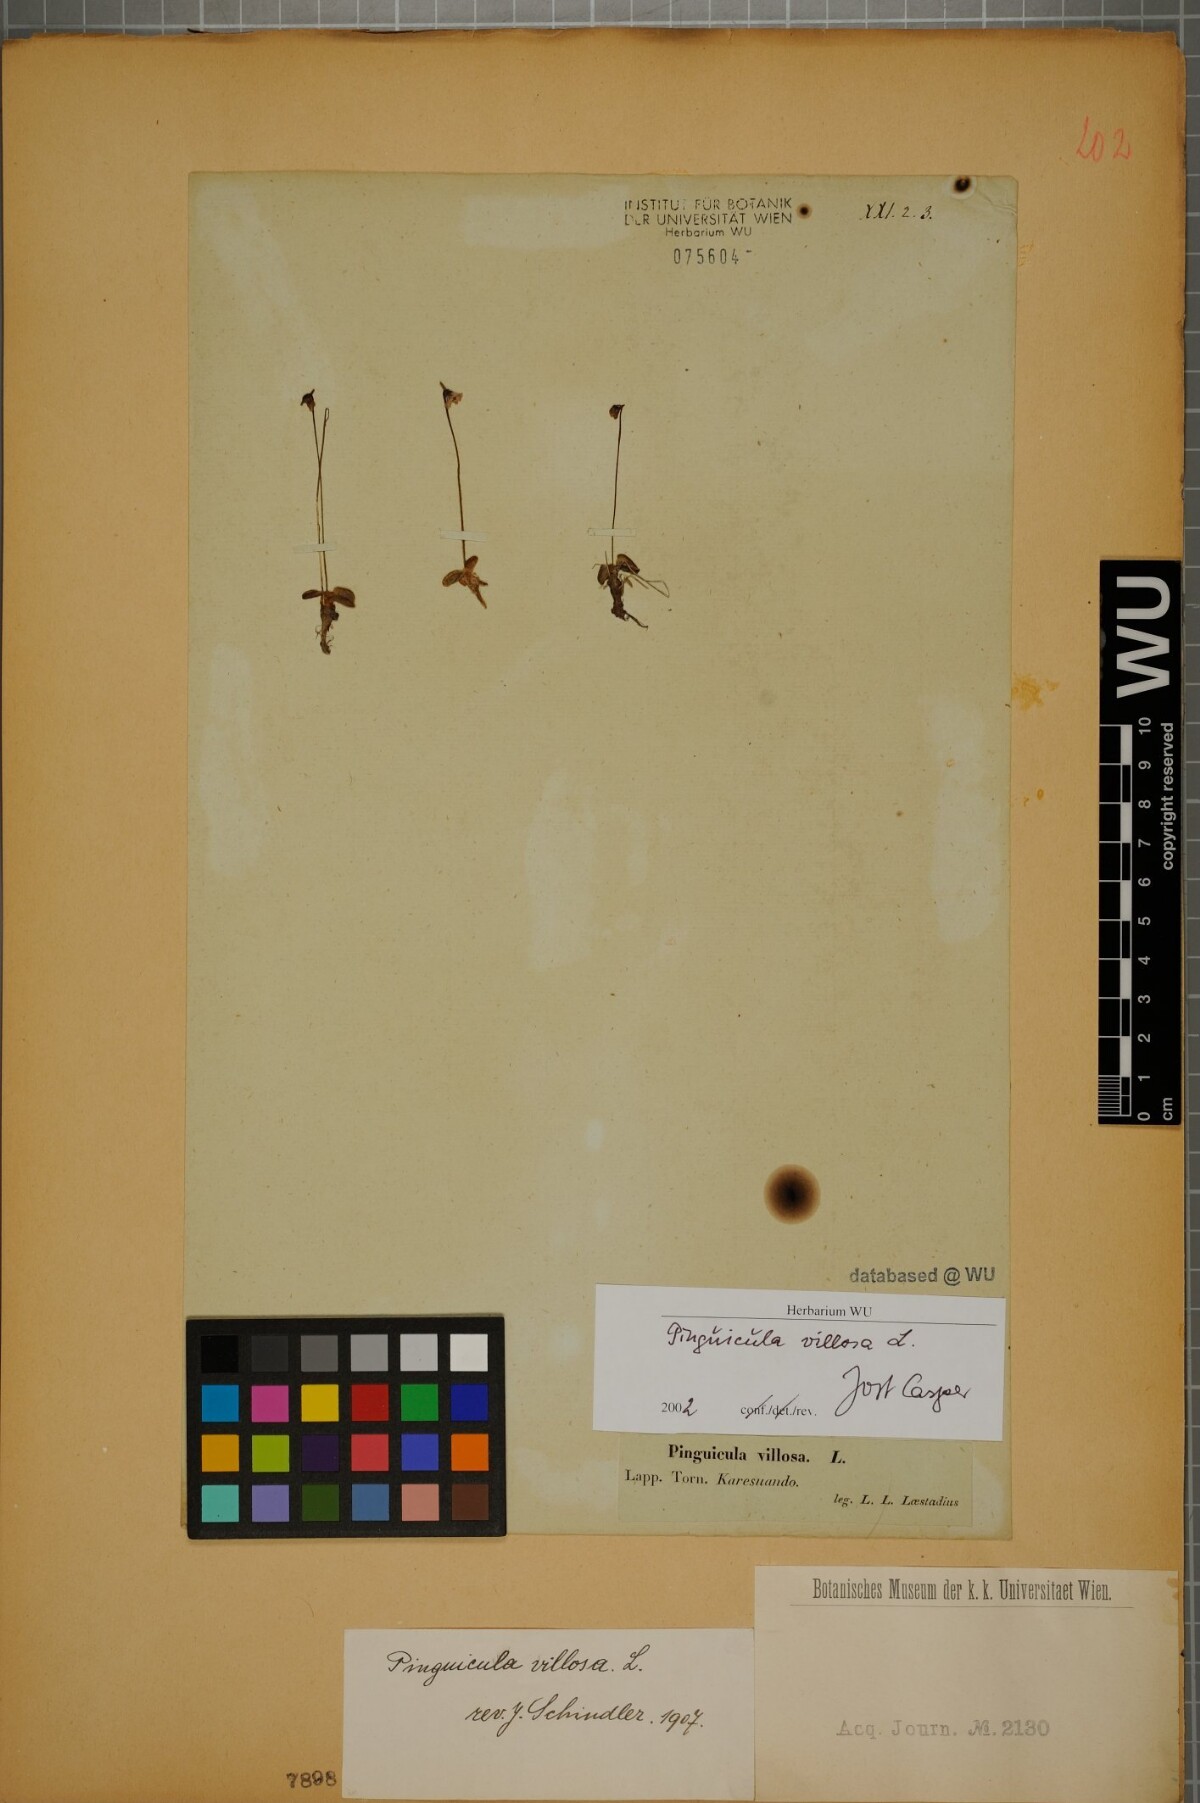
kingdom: Plantae
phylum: Tracheophyta
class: Magnoliopsida
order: Lamiales
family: Lentibulariaceae
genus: Pinguicula
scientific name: Pinguicula villosa
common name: Hairy butterwort
